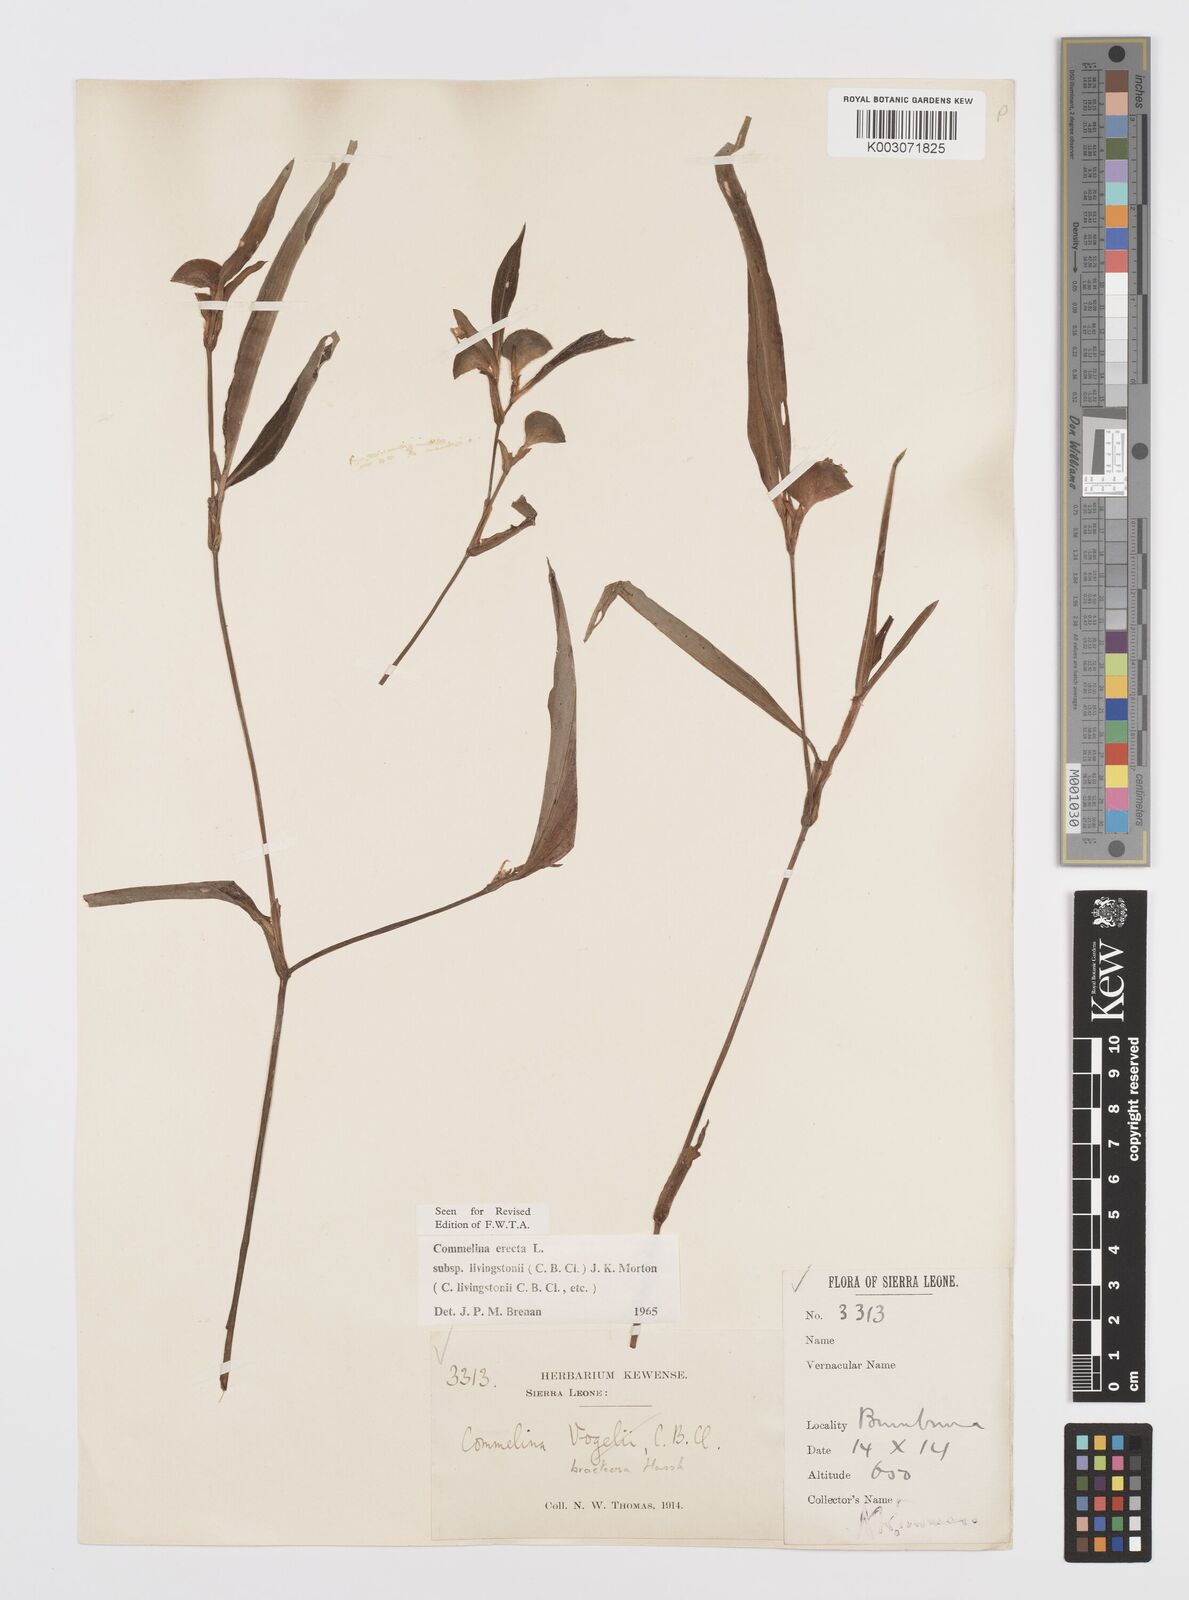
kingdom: Plantae
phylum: Tracheophyta
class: Liliopsida
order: Commelinales
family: Commelinaceae
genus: Commelina
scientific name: Commelina erecta
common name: Blousel blommetjie
